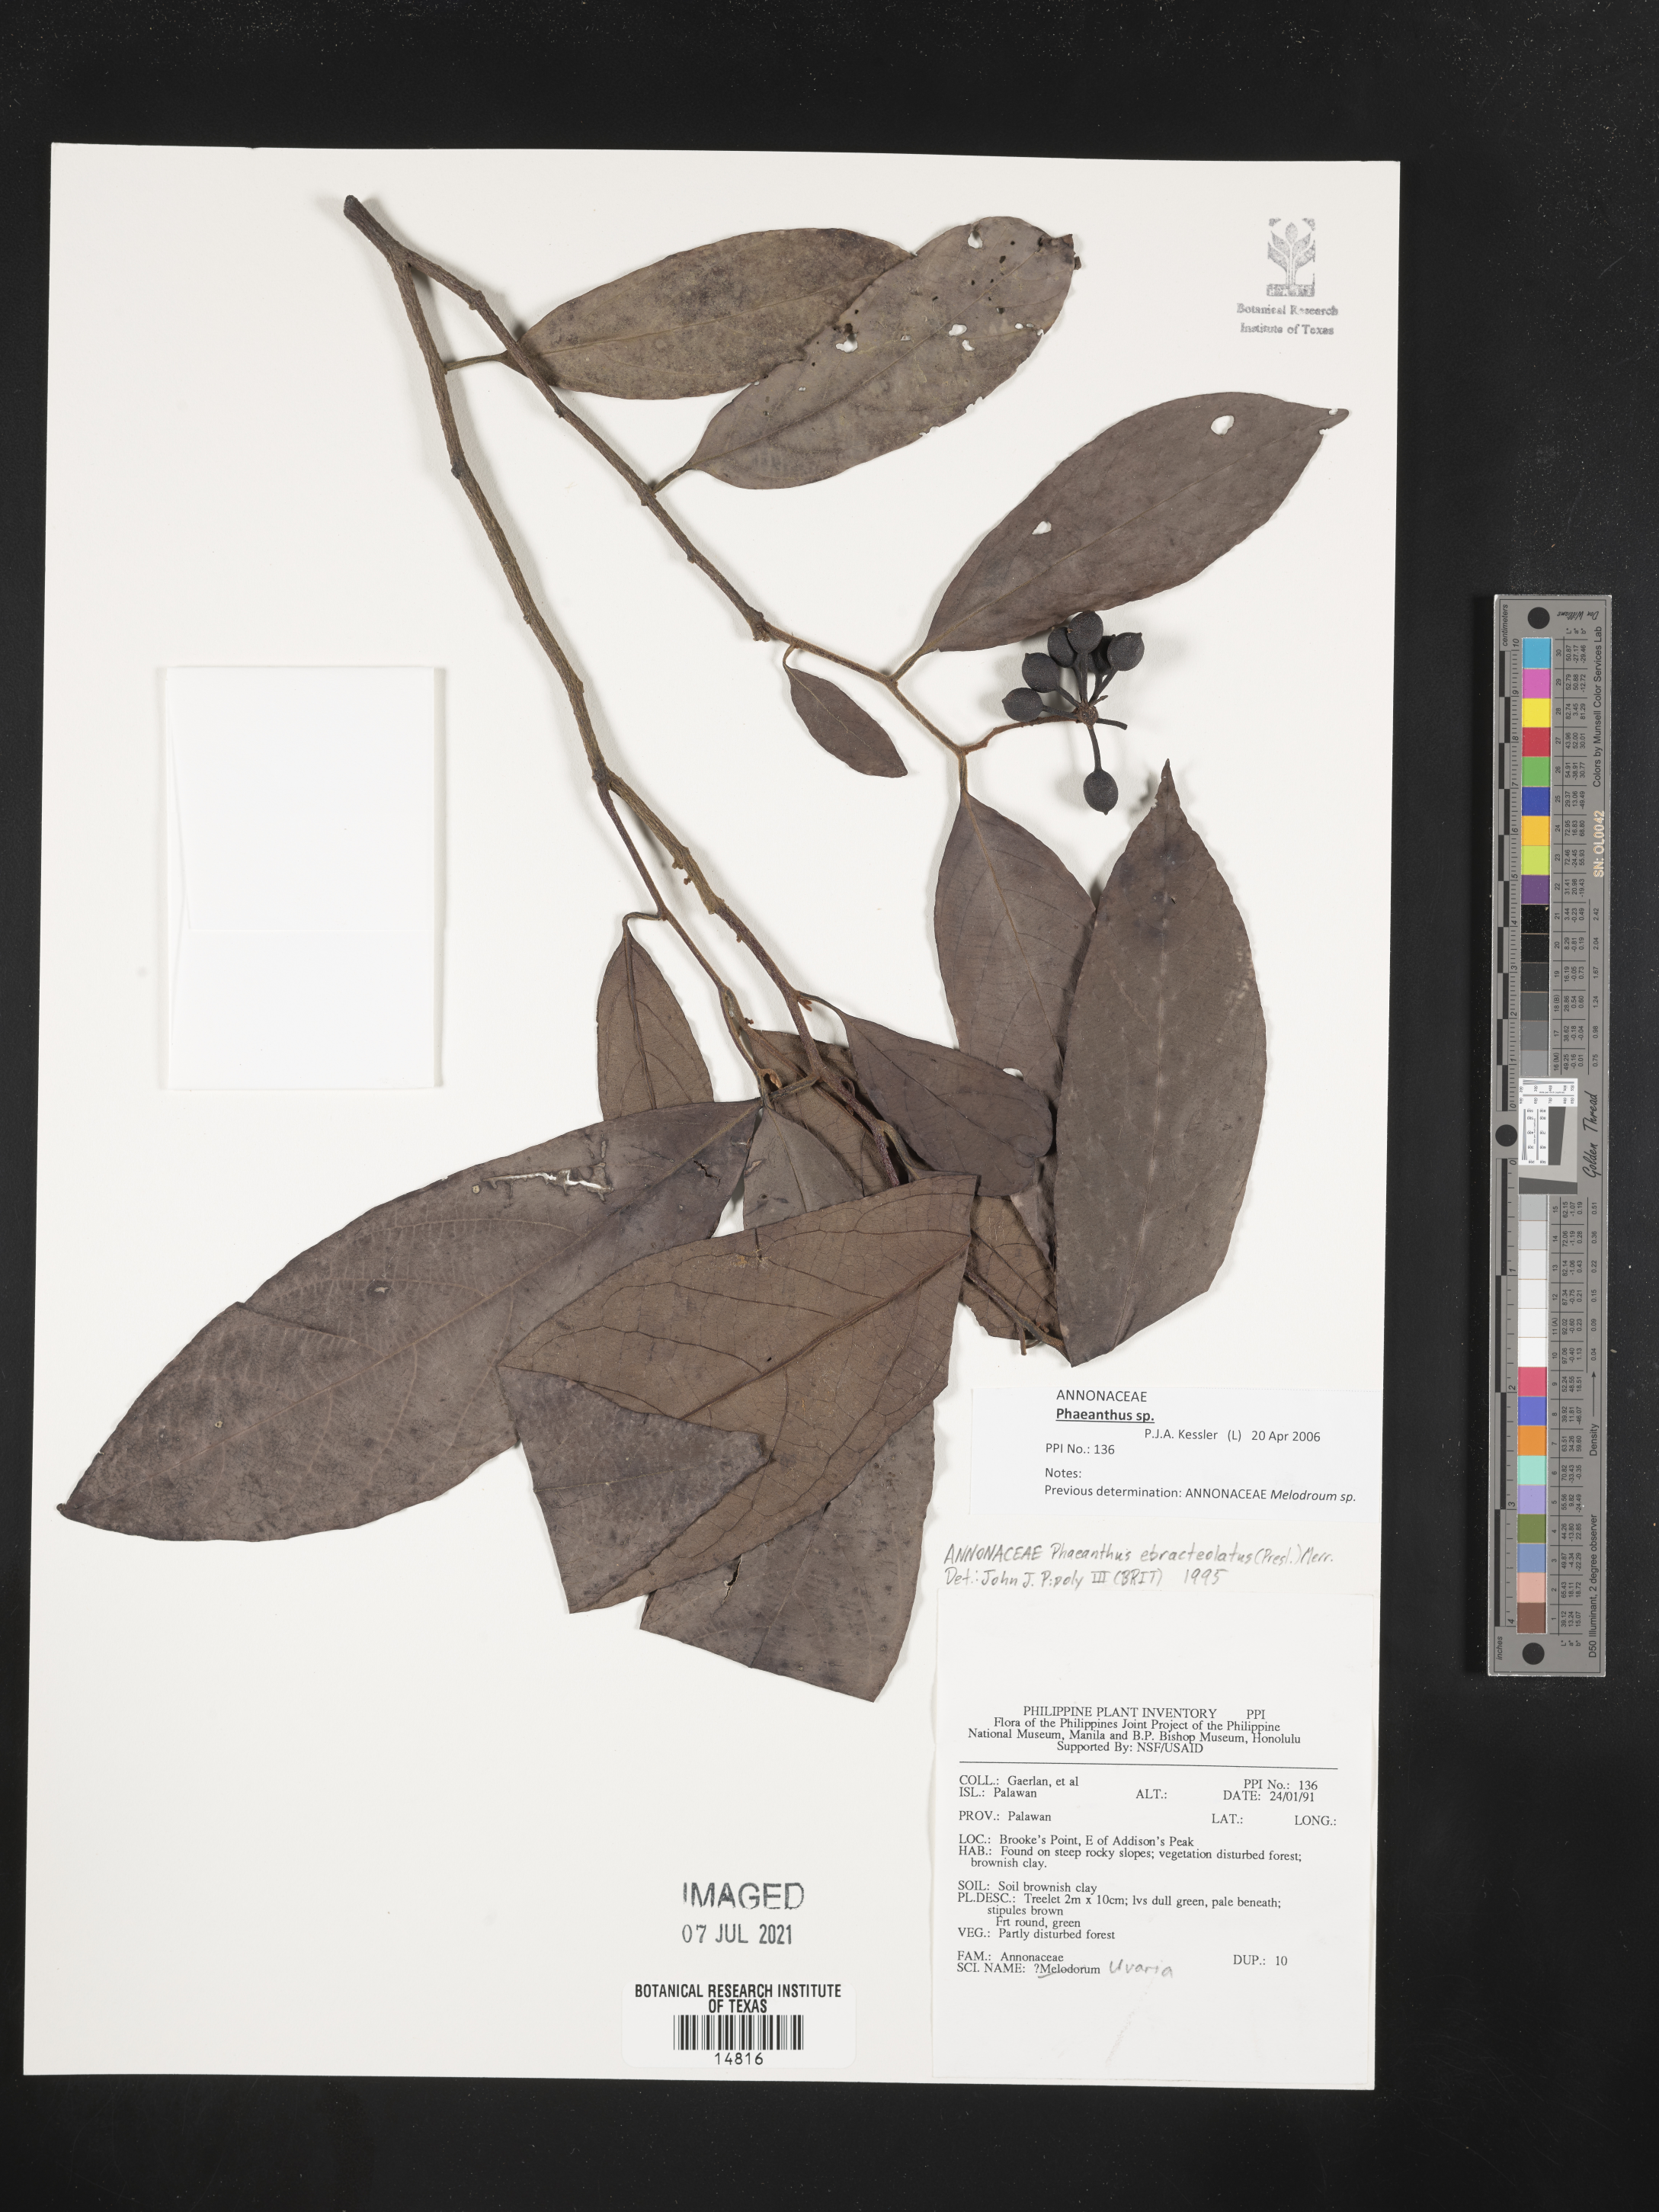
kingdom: Plantae
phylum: Tracheophyta
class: Magnoliopsida
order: Magnoliales
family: Annonaceae
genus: Phaeanthus
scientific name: Phaeanthus ophthalmicus
